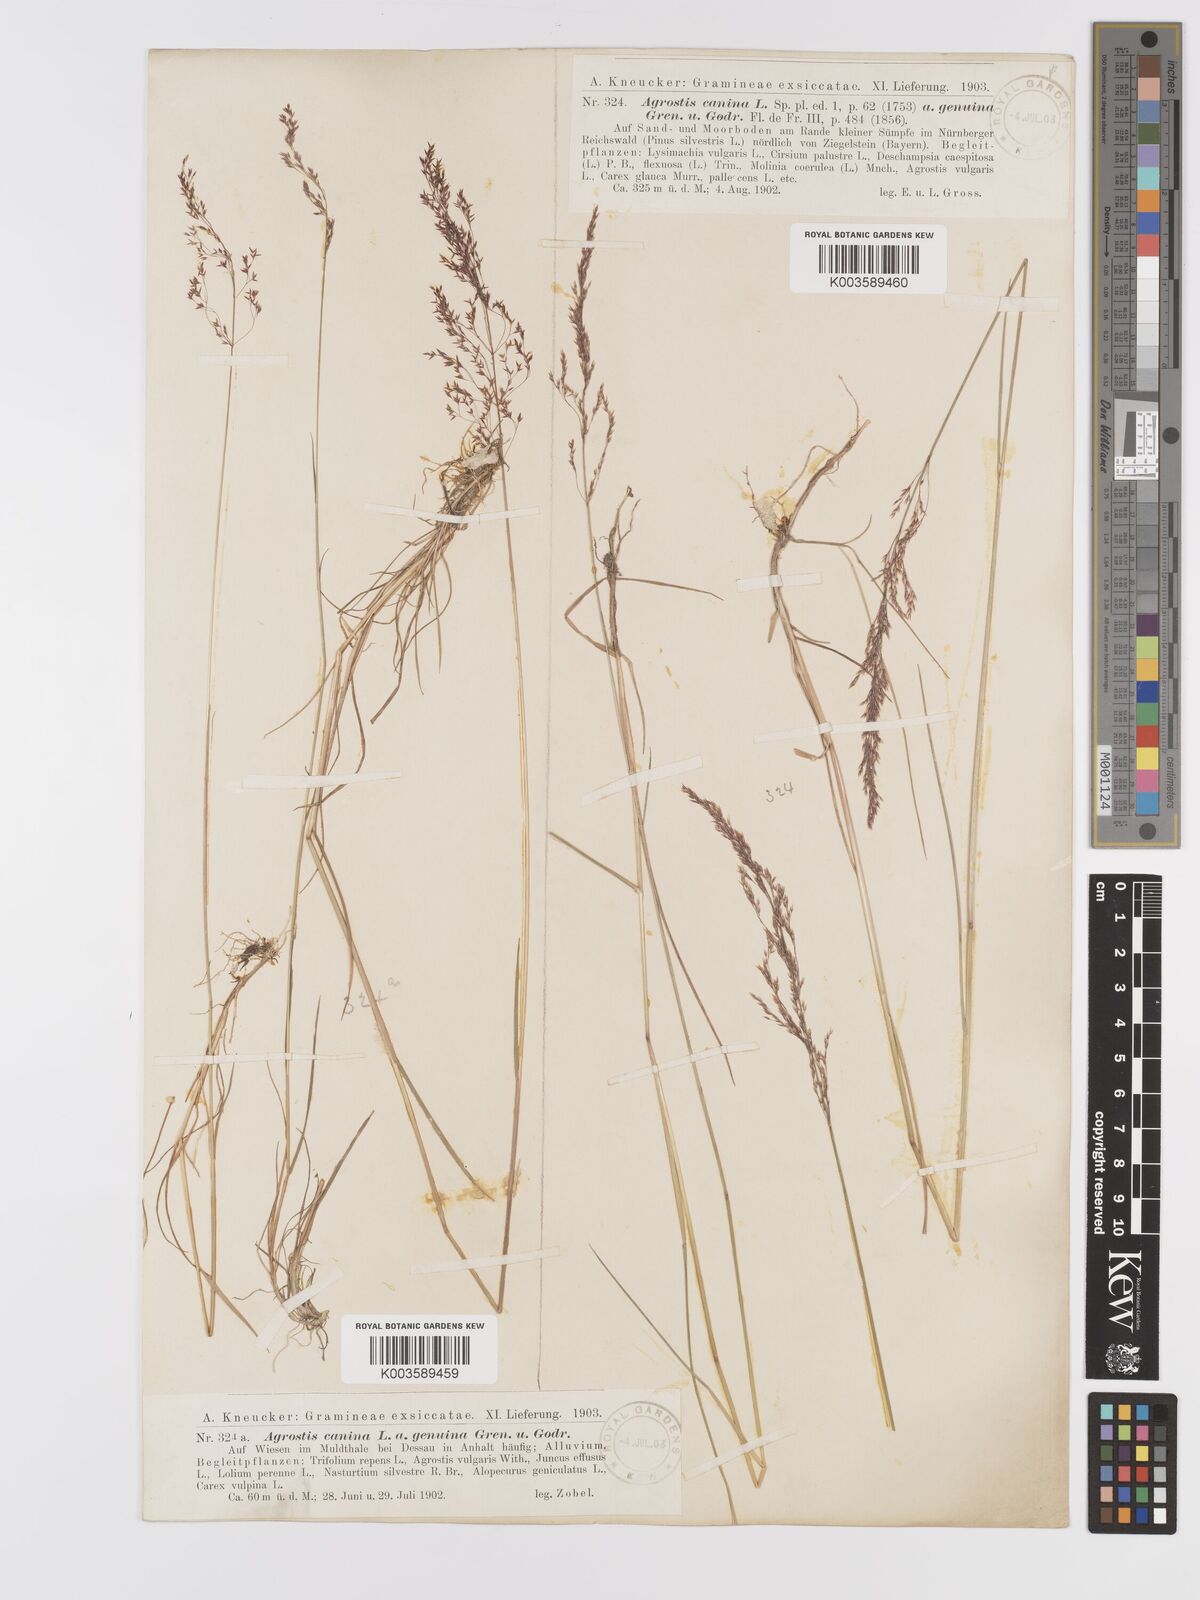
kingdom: Plantae
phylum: Tracheophyta
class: Liliopsida
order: Poales
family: Poaceae
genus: Agrostis
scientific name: Agrostis canina
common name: Velvet bent
